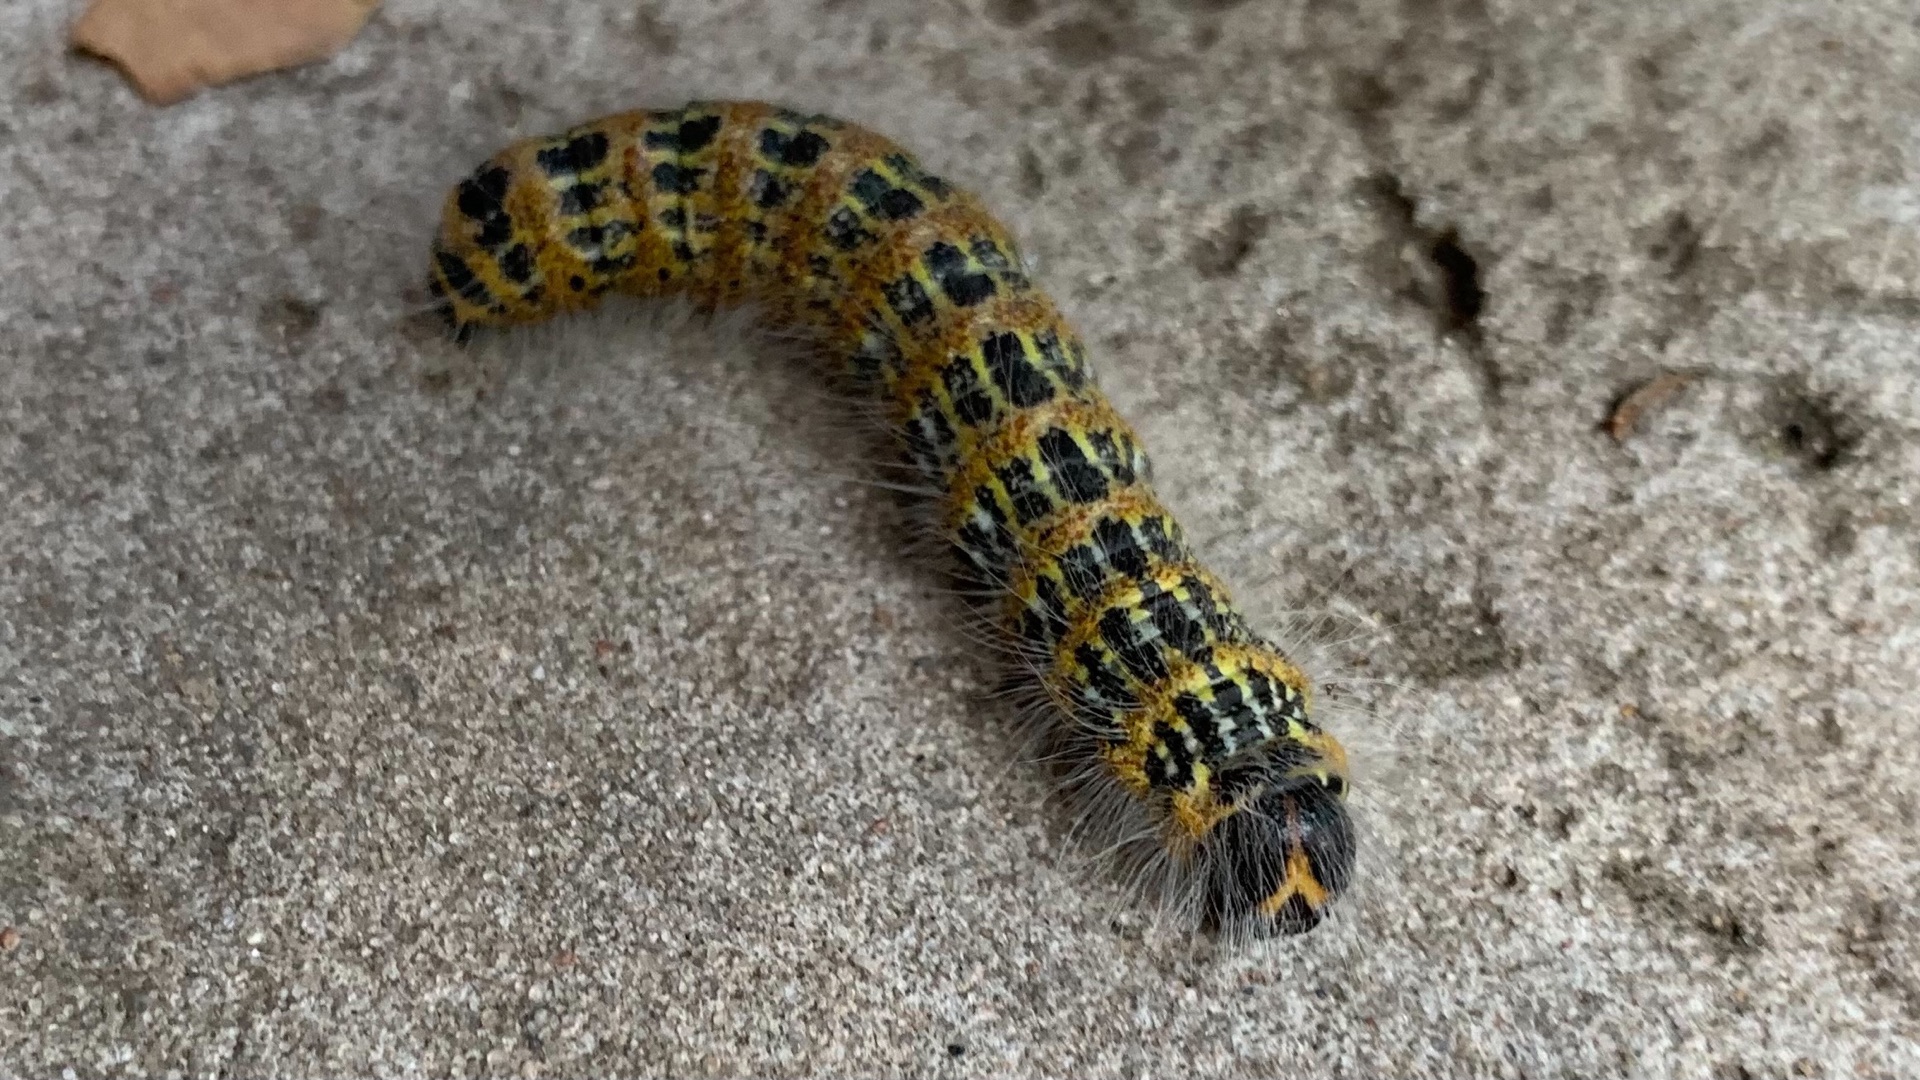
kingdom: Animalia
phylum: Arthropoda
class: Insecta
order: Lepidoptera
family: Notodontidae
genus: Phalera
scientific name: Phalera bucephala
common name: Måneplet
